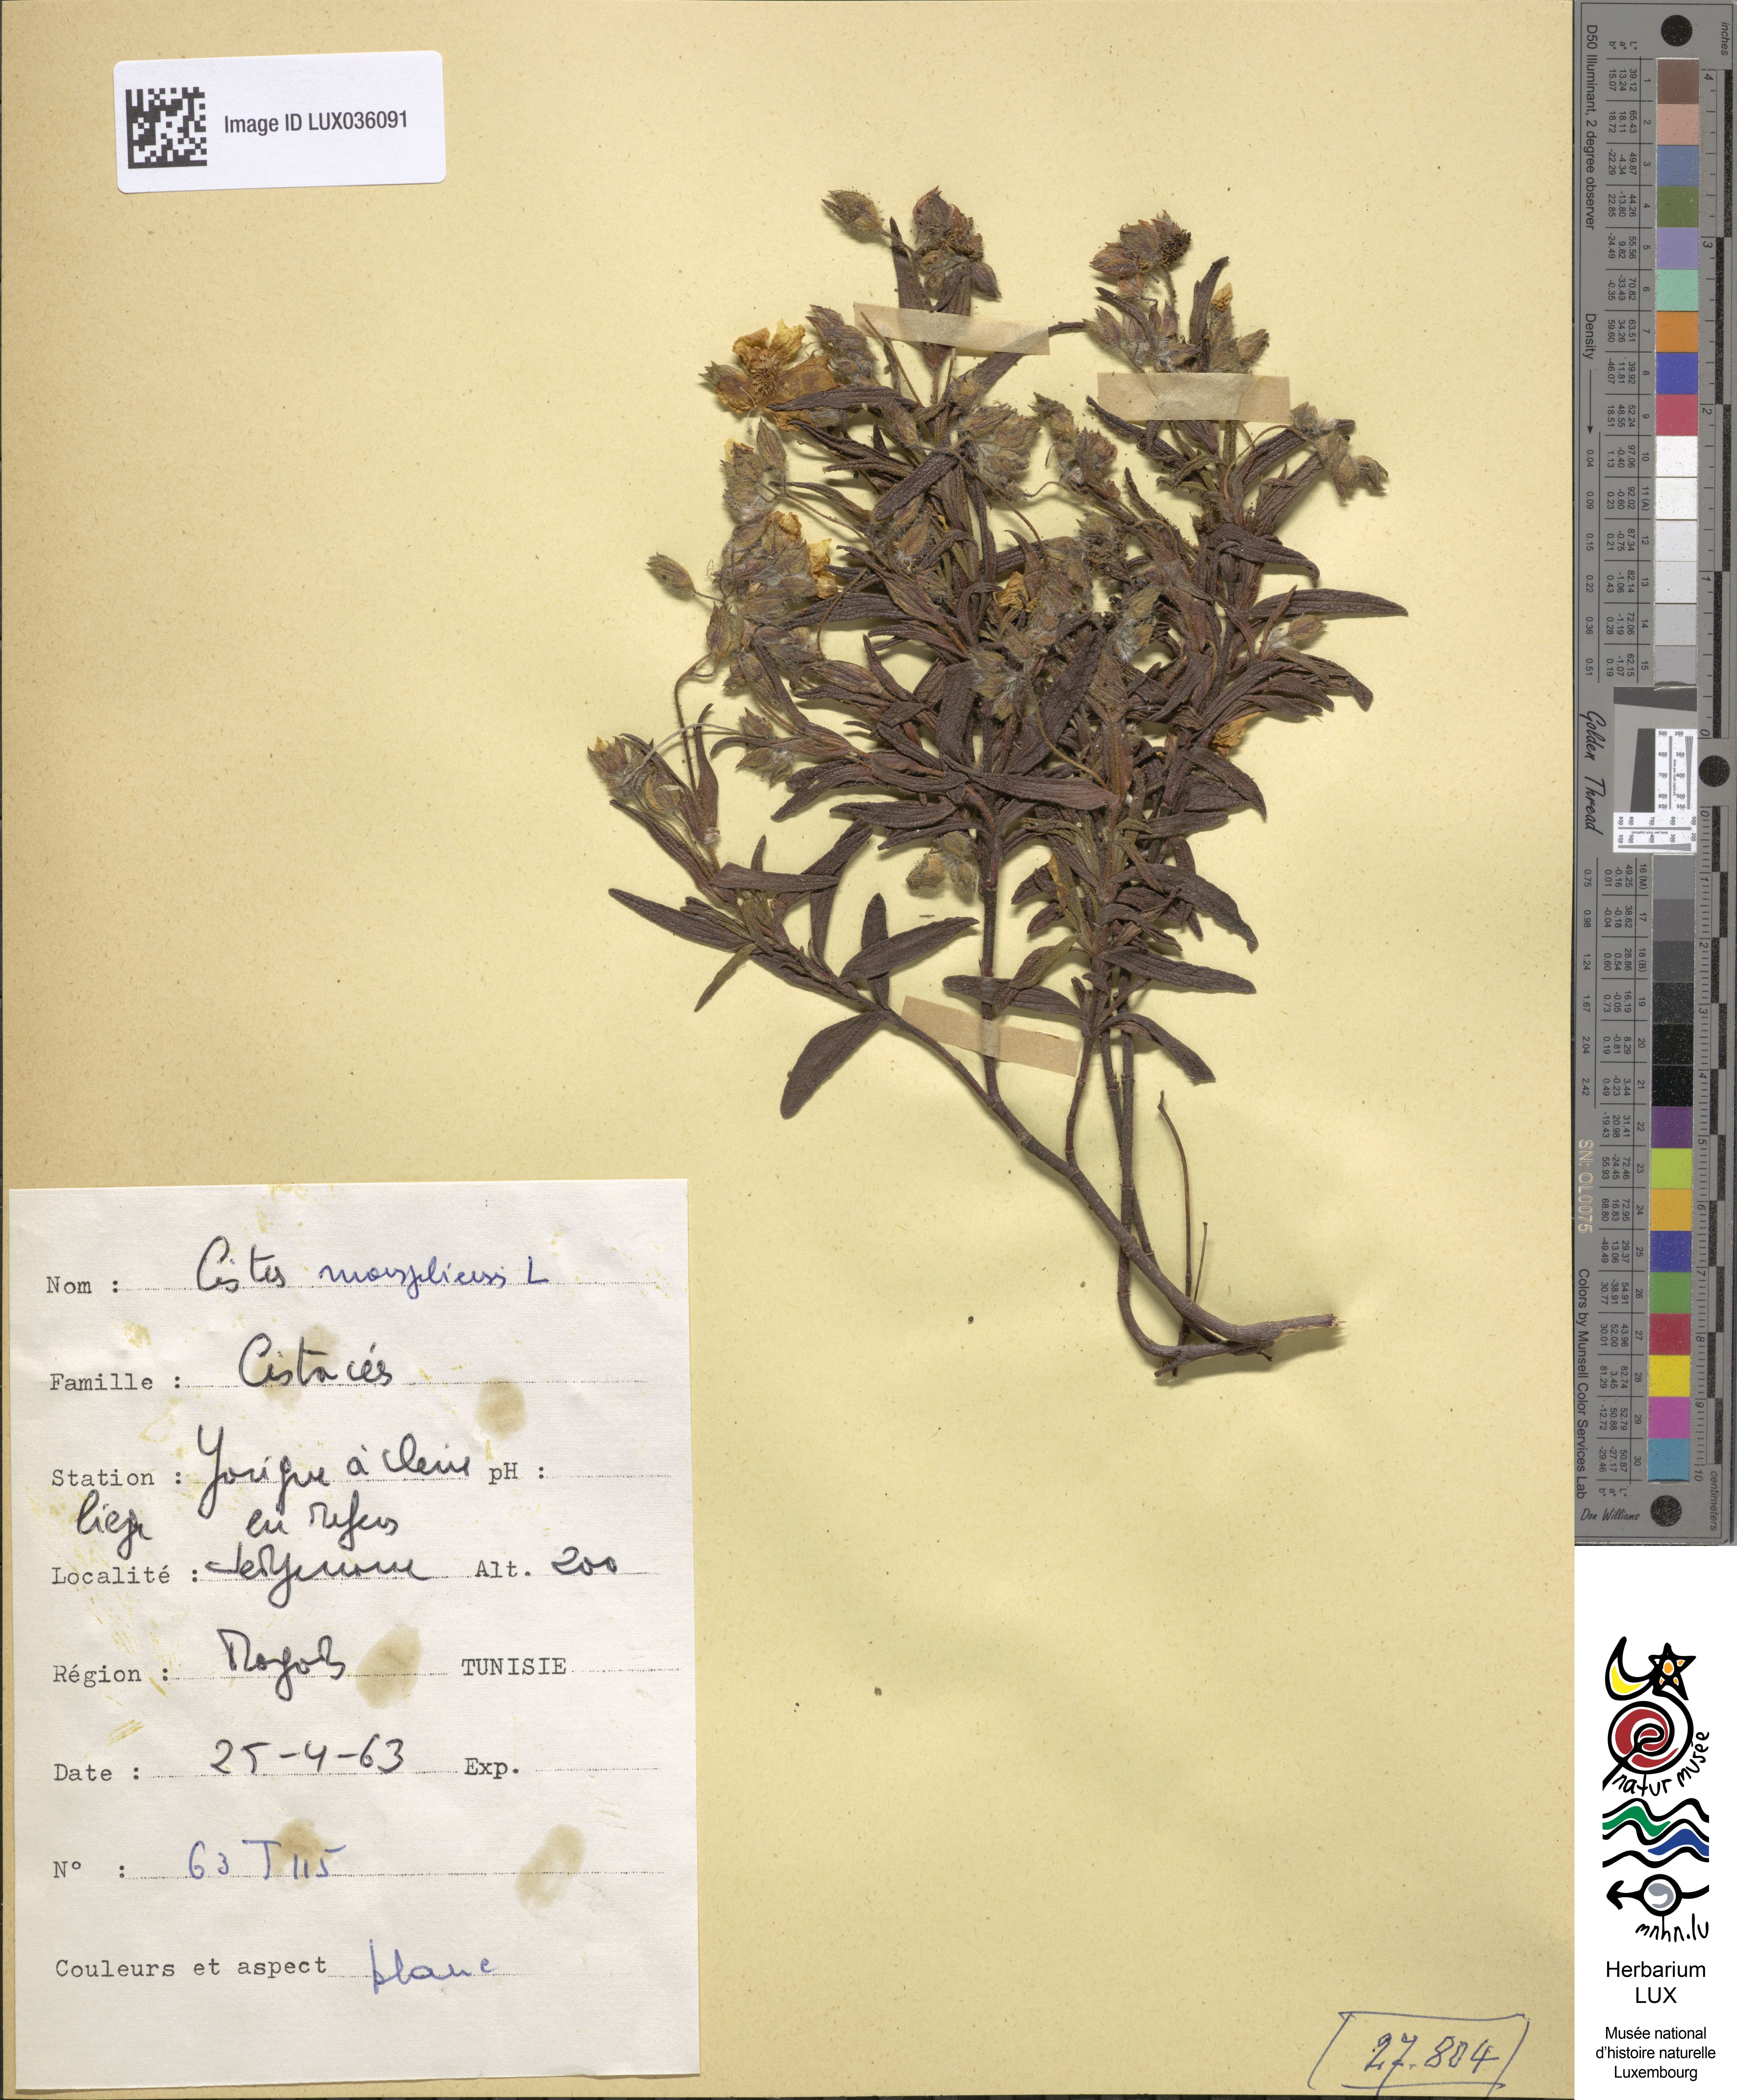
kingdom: Plantae
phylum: Tracheophyta
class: Magnoliopsida
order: Malvales
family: Cistaceae
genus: Cistus
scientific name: Cistus monspeliensis
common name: Montpelier cistus
